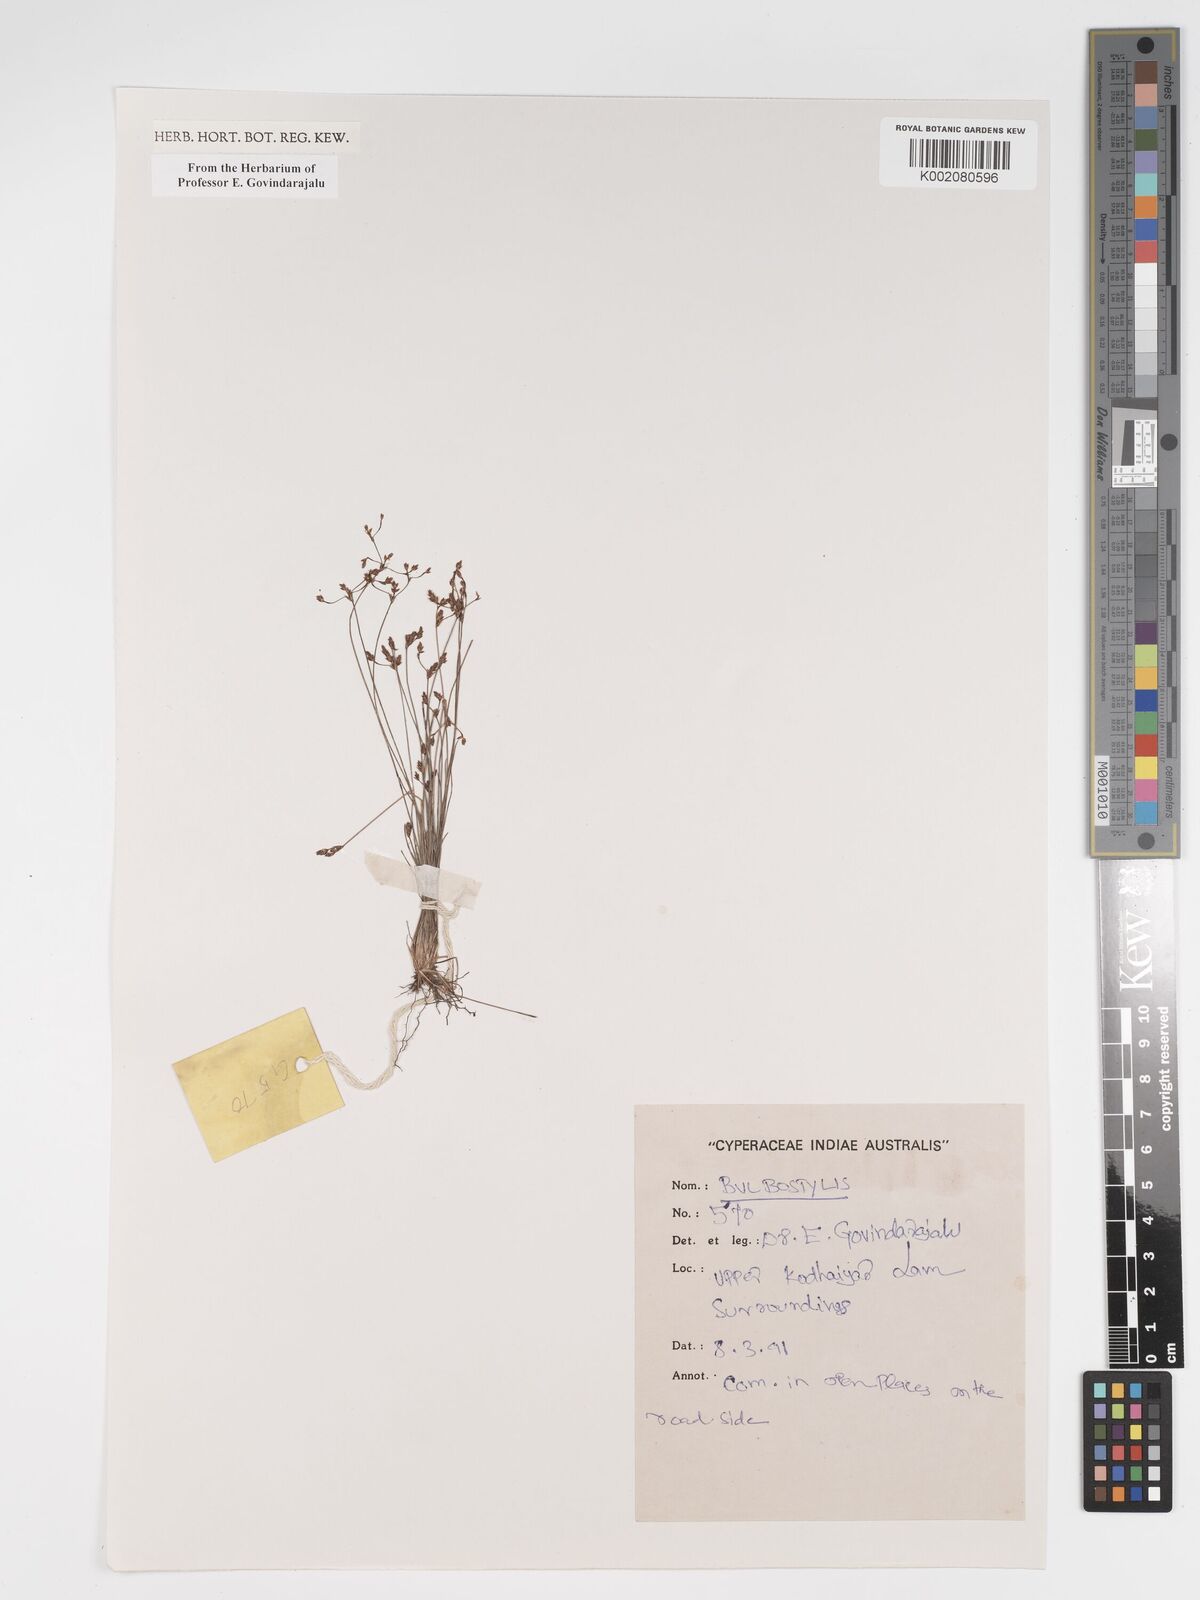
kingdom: Plantae
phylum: Tracheophyta
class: Liliopsida
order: Poales
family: Cyperaceae
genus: Bulbostylis
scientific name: Bulbostylis
